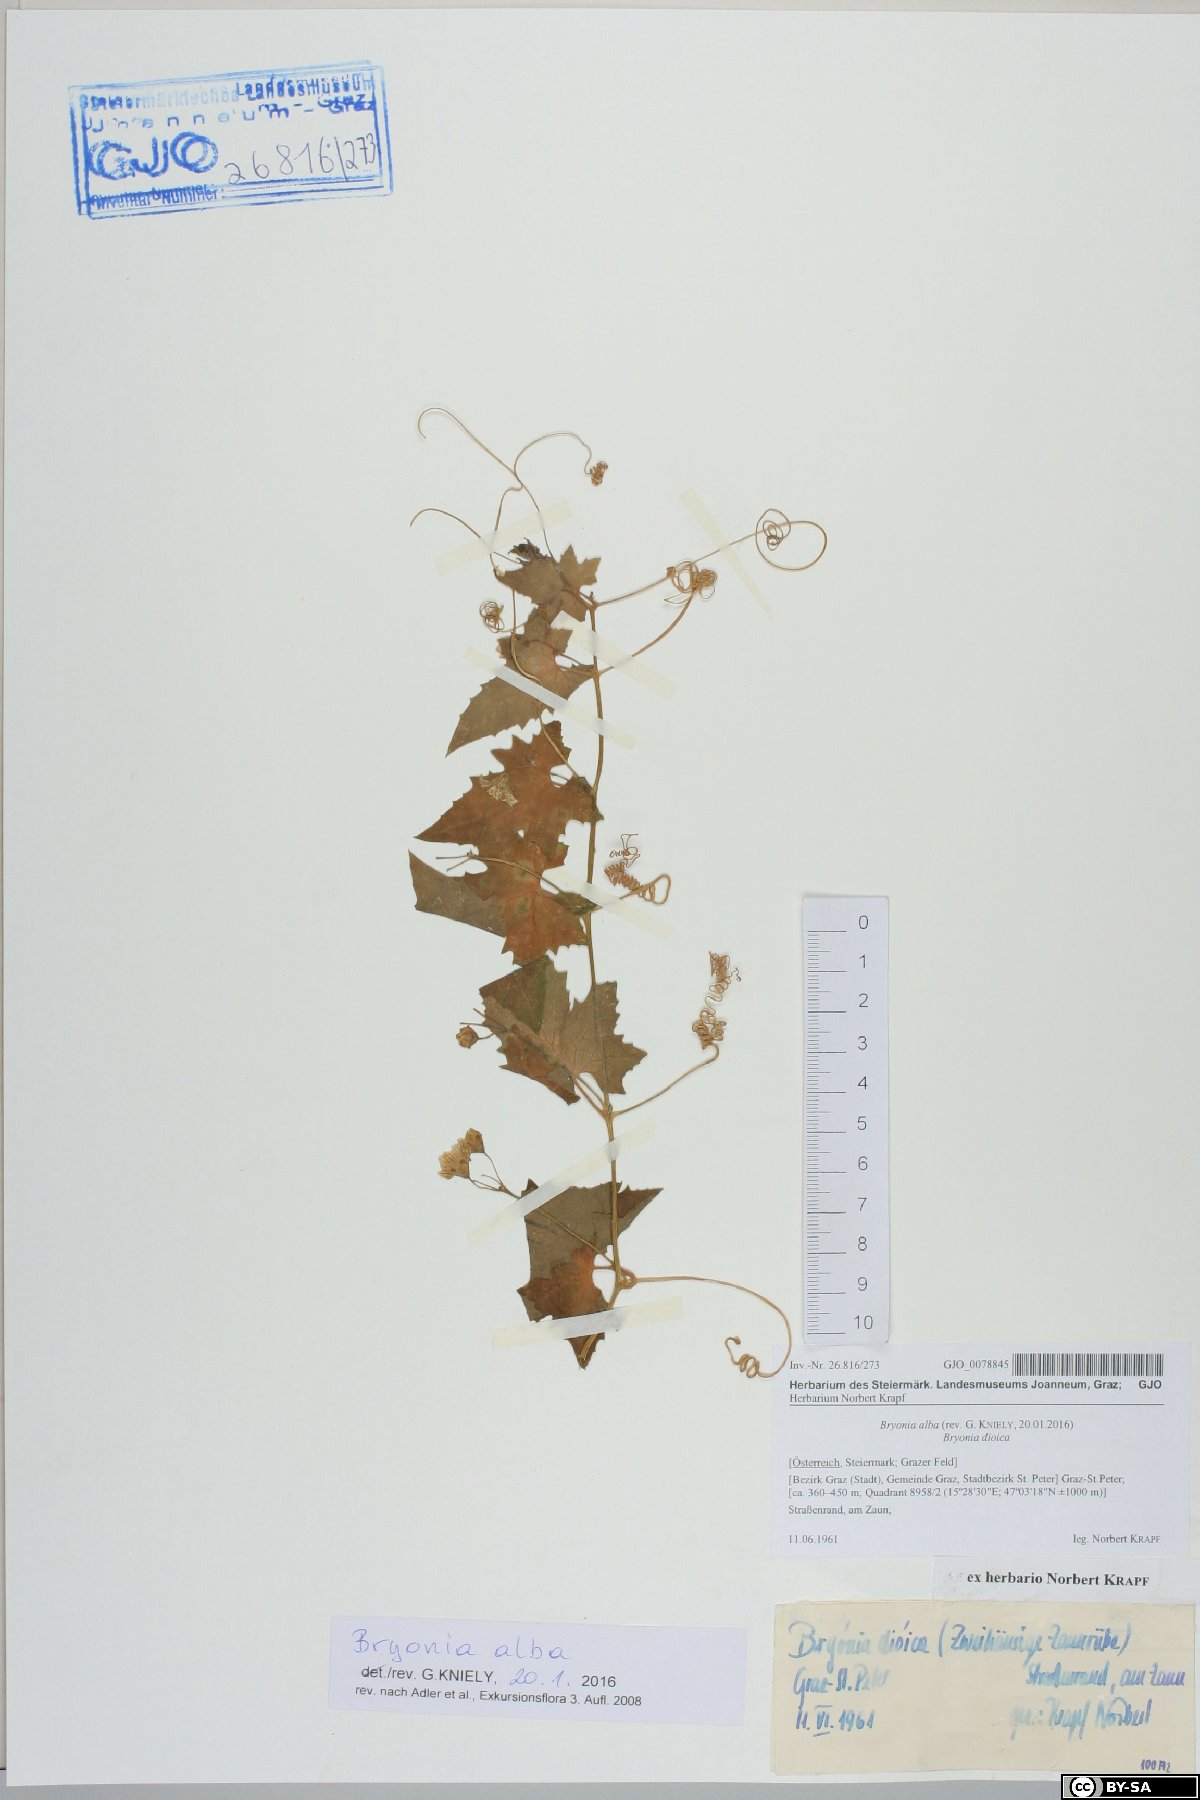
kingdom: Plantae
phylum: Tracheophyta
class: Magnoliopsida
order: Cucurbitales
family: Cucurbitaceae
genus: Bryonia
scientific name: Bryonia alba
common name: White bryony
